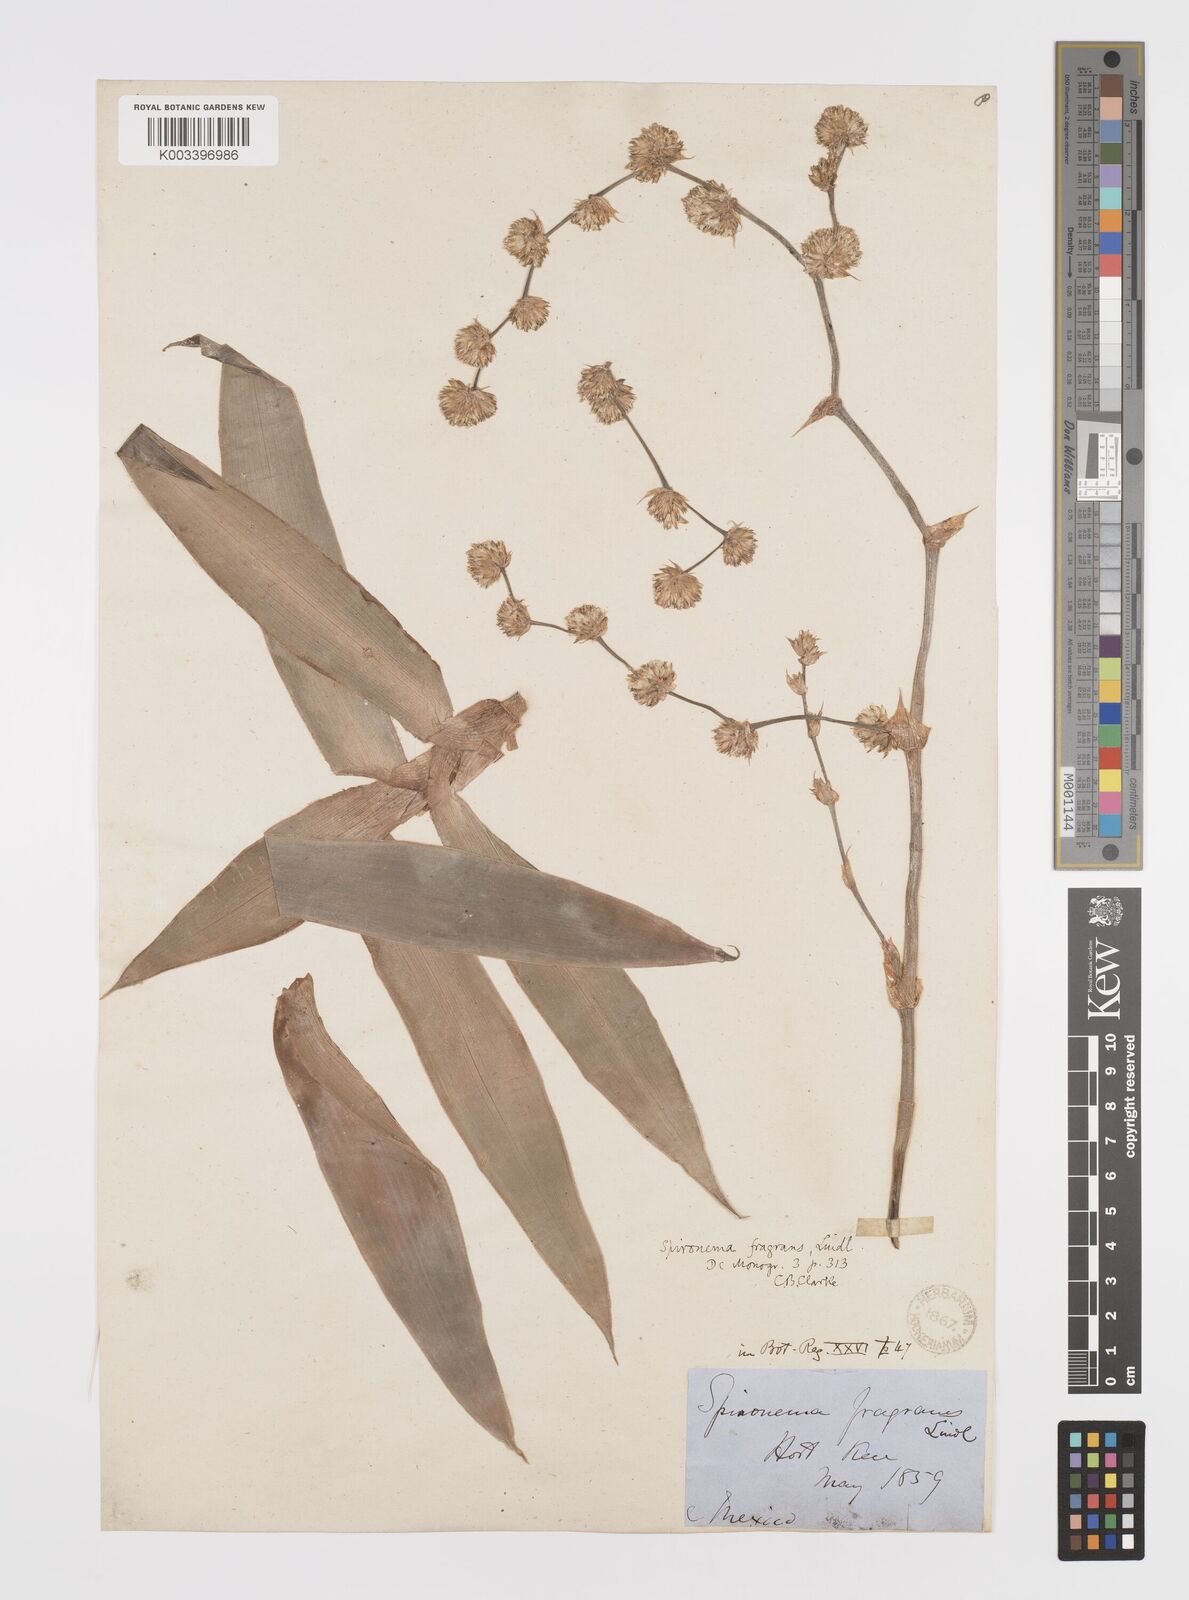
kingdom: Plantae
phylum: Tracheophyta
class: Liliopsida
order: Commelinales
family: Commelinaceae
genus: Callisia
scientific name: Callisia fragrans
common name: Basketplant
